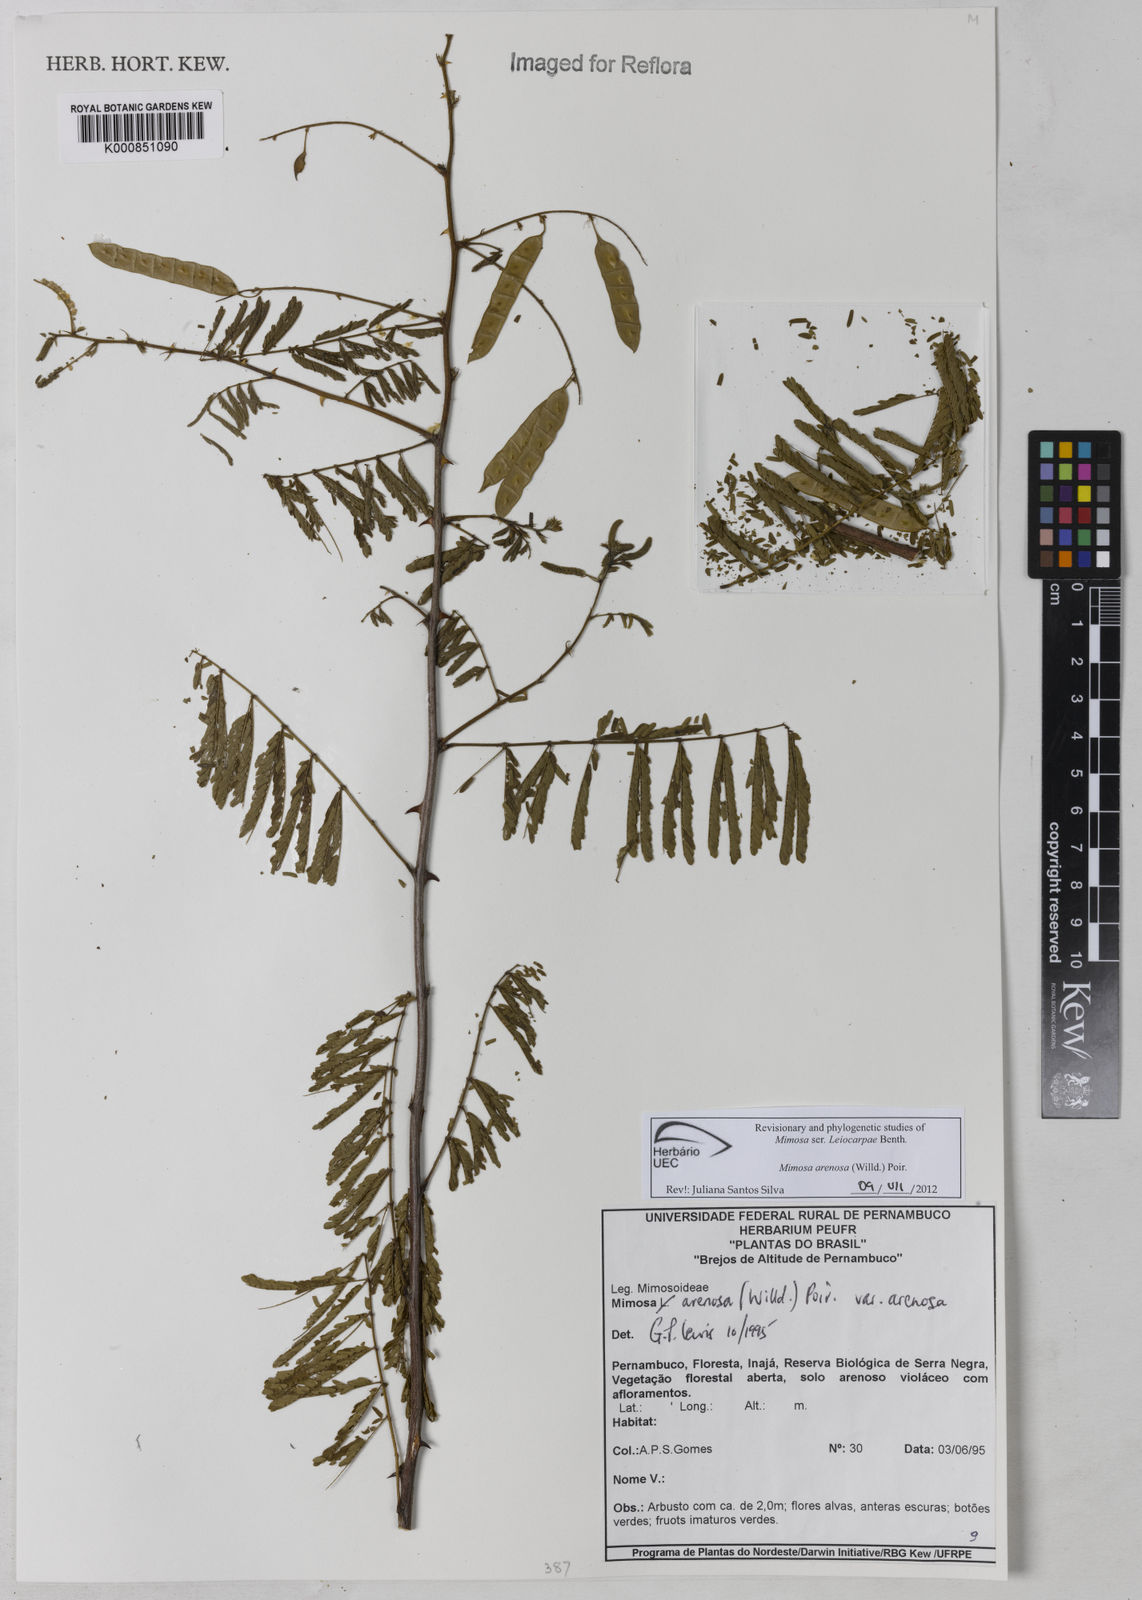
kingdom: Plantae
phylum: Tracheophyta
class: Magnoliopsida
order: Fabales
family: Fabaceae
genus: Mimosa
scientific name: Mimosa arenosa
